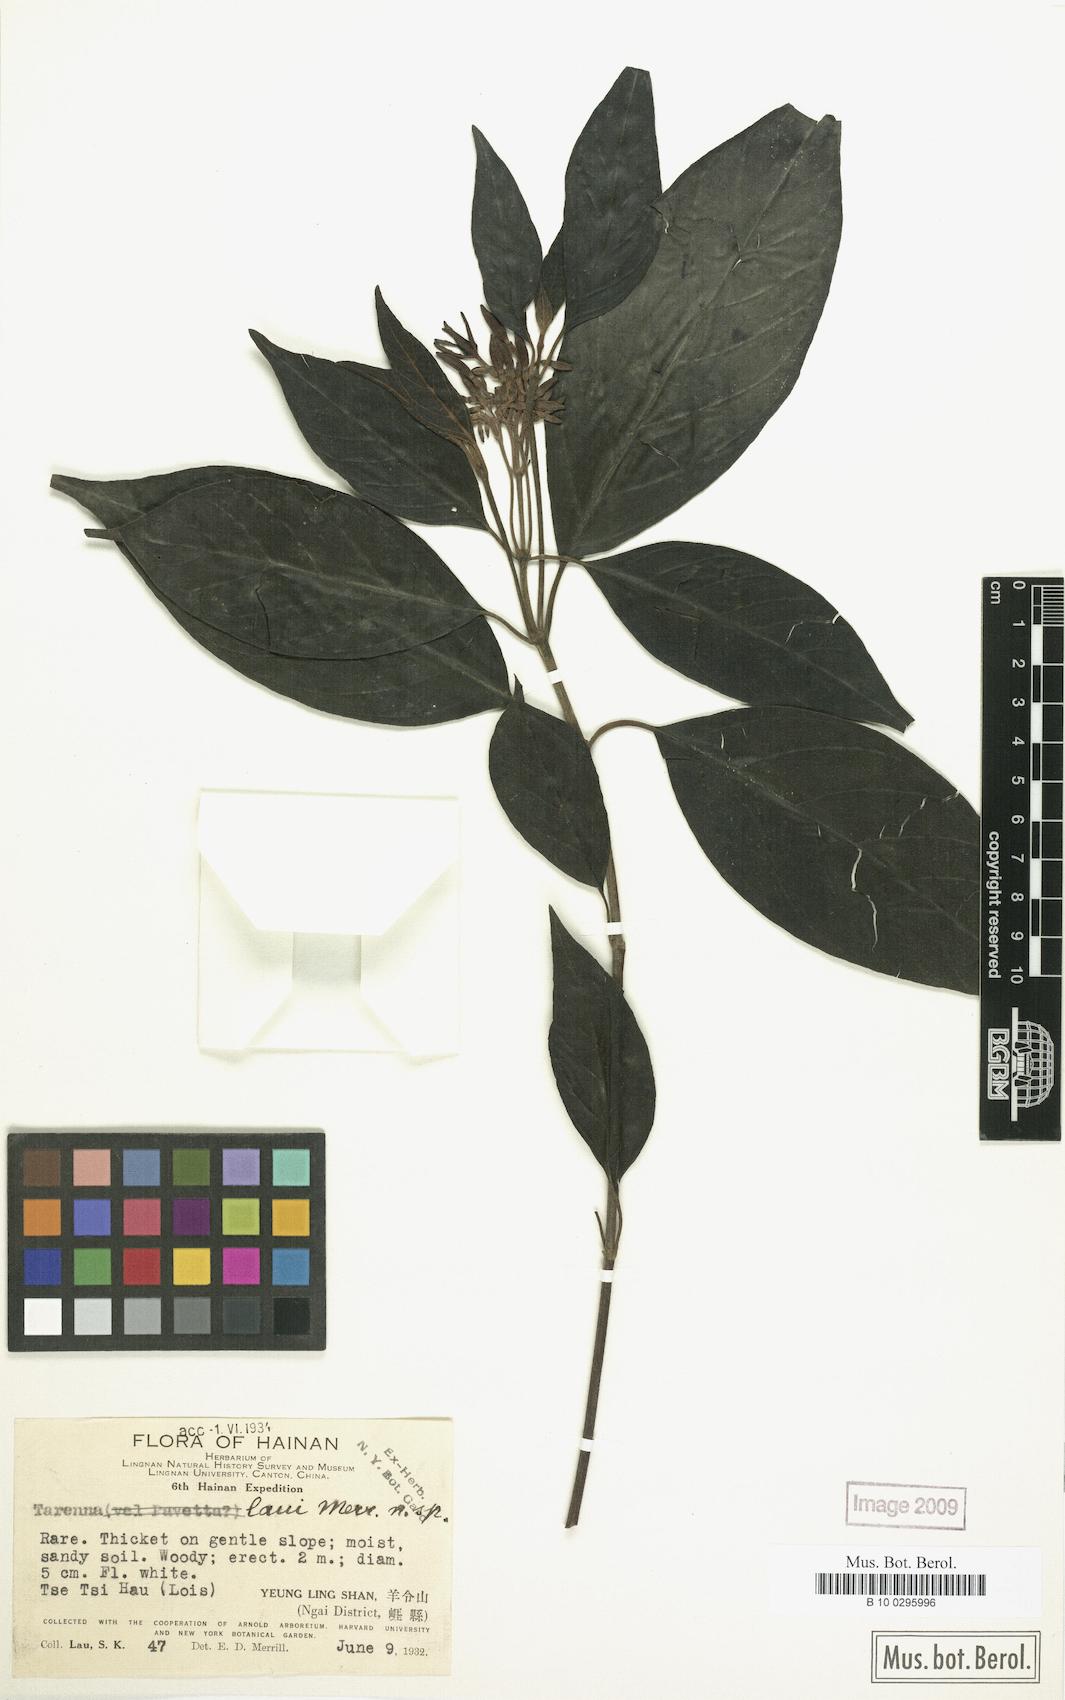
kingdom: Plantae
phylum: Tracheophyta
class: Magnoliopsida
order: Gentianales
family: Rubiaceae
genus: Tarenna
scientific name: Tarenna laui
